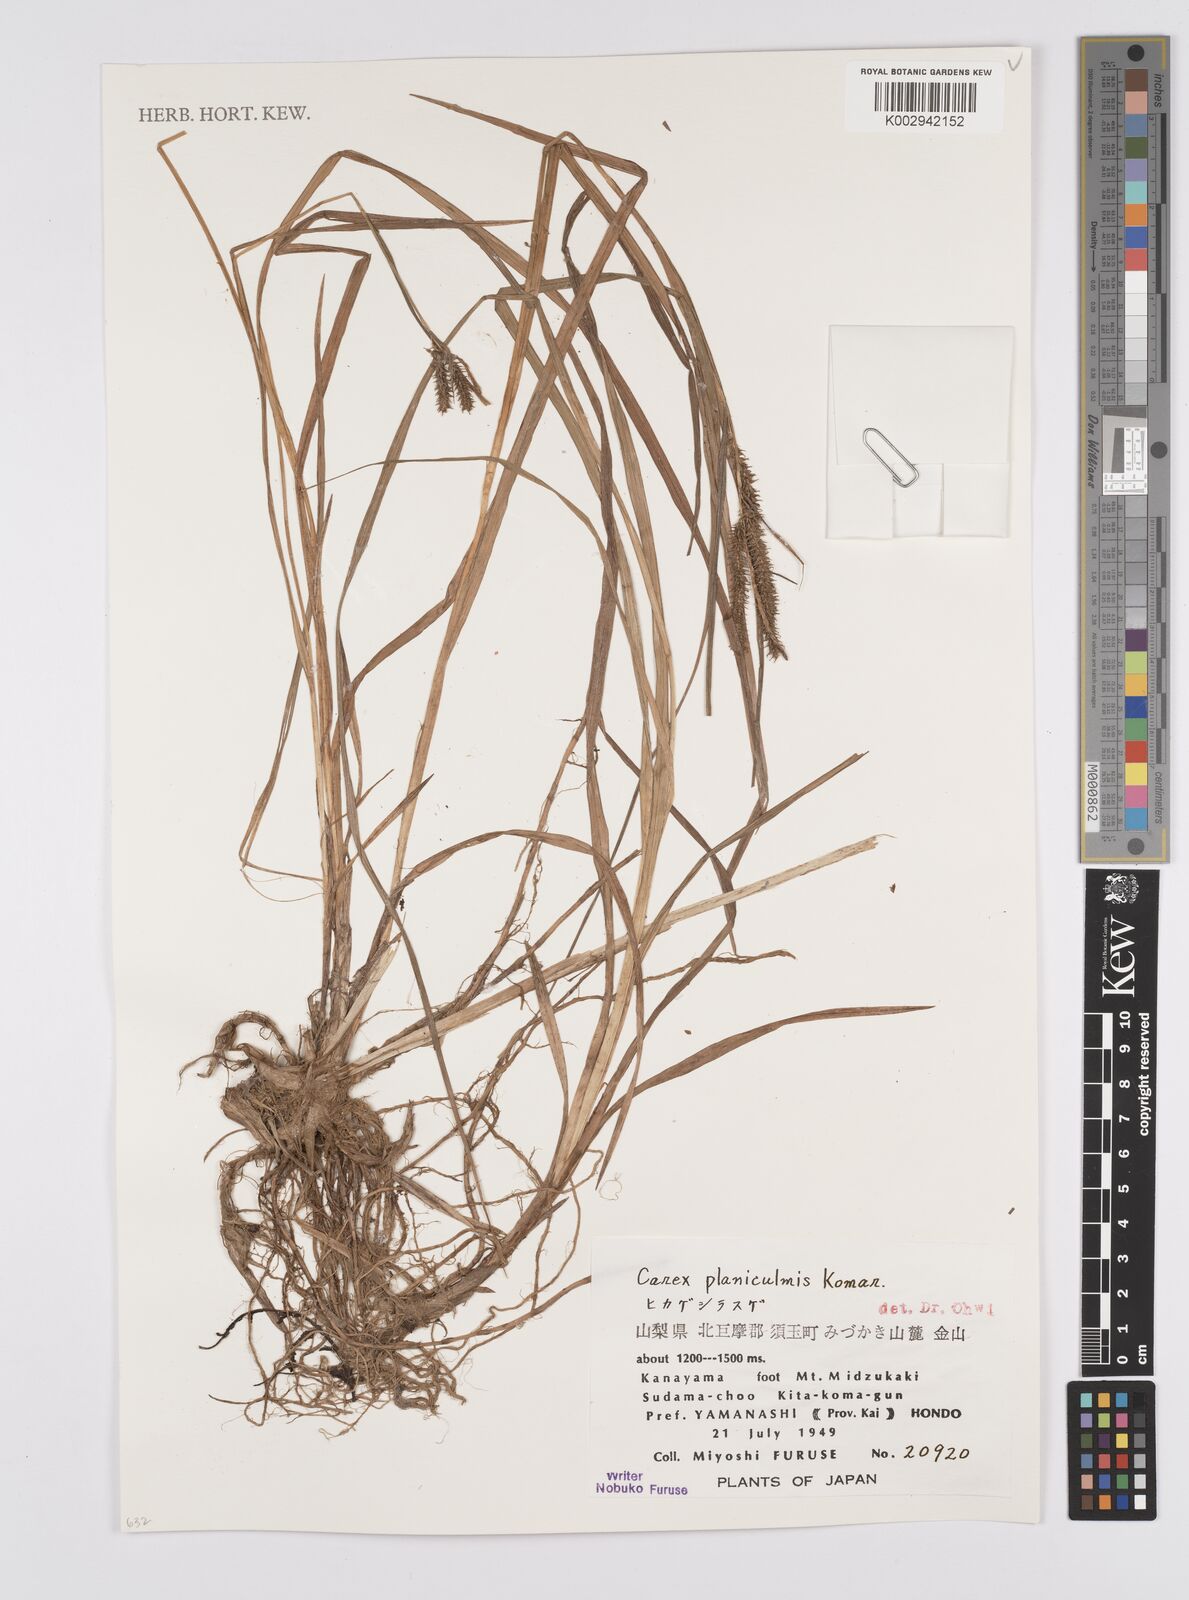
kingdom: Plantae
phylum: Tracheophyta
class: Liliopsida
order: Poales
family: Cyperaceae
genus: Carex
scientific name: Carex planiculmis
